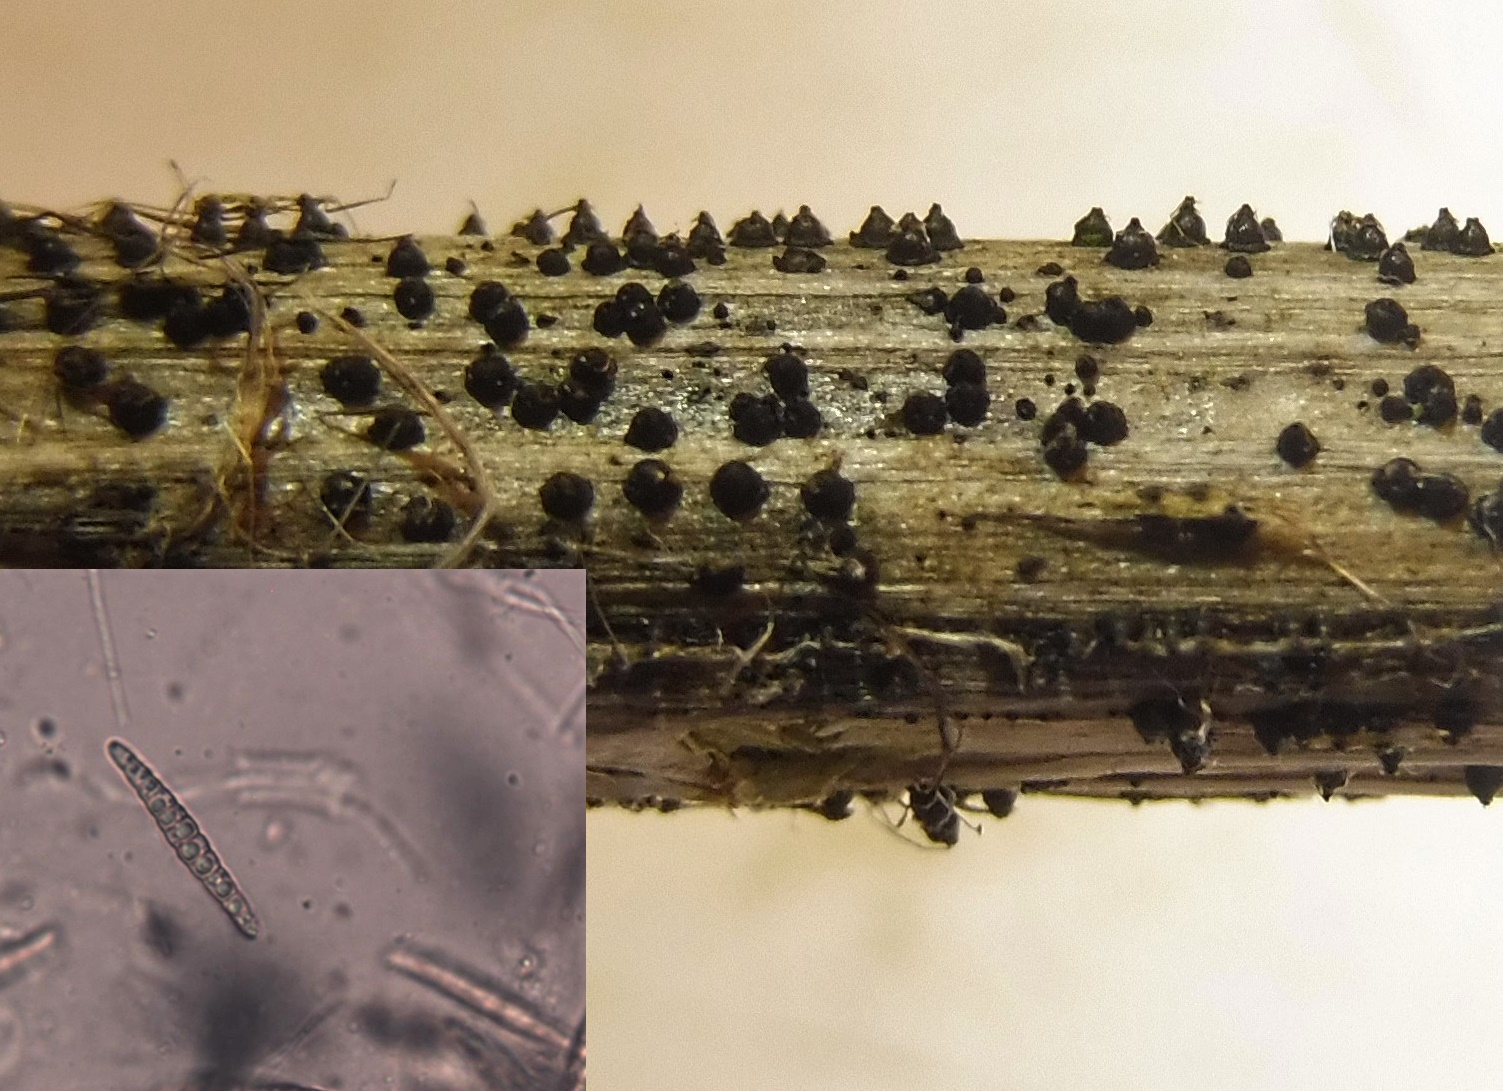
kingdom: Fungi
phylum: Ascomycota
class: Dothideomycetes
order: Pleosporales
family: Leptosphaeriaceae
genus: Leptosphaeria
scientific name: Leptosphaeria acuta
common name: spids kulkegle
